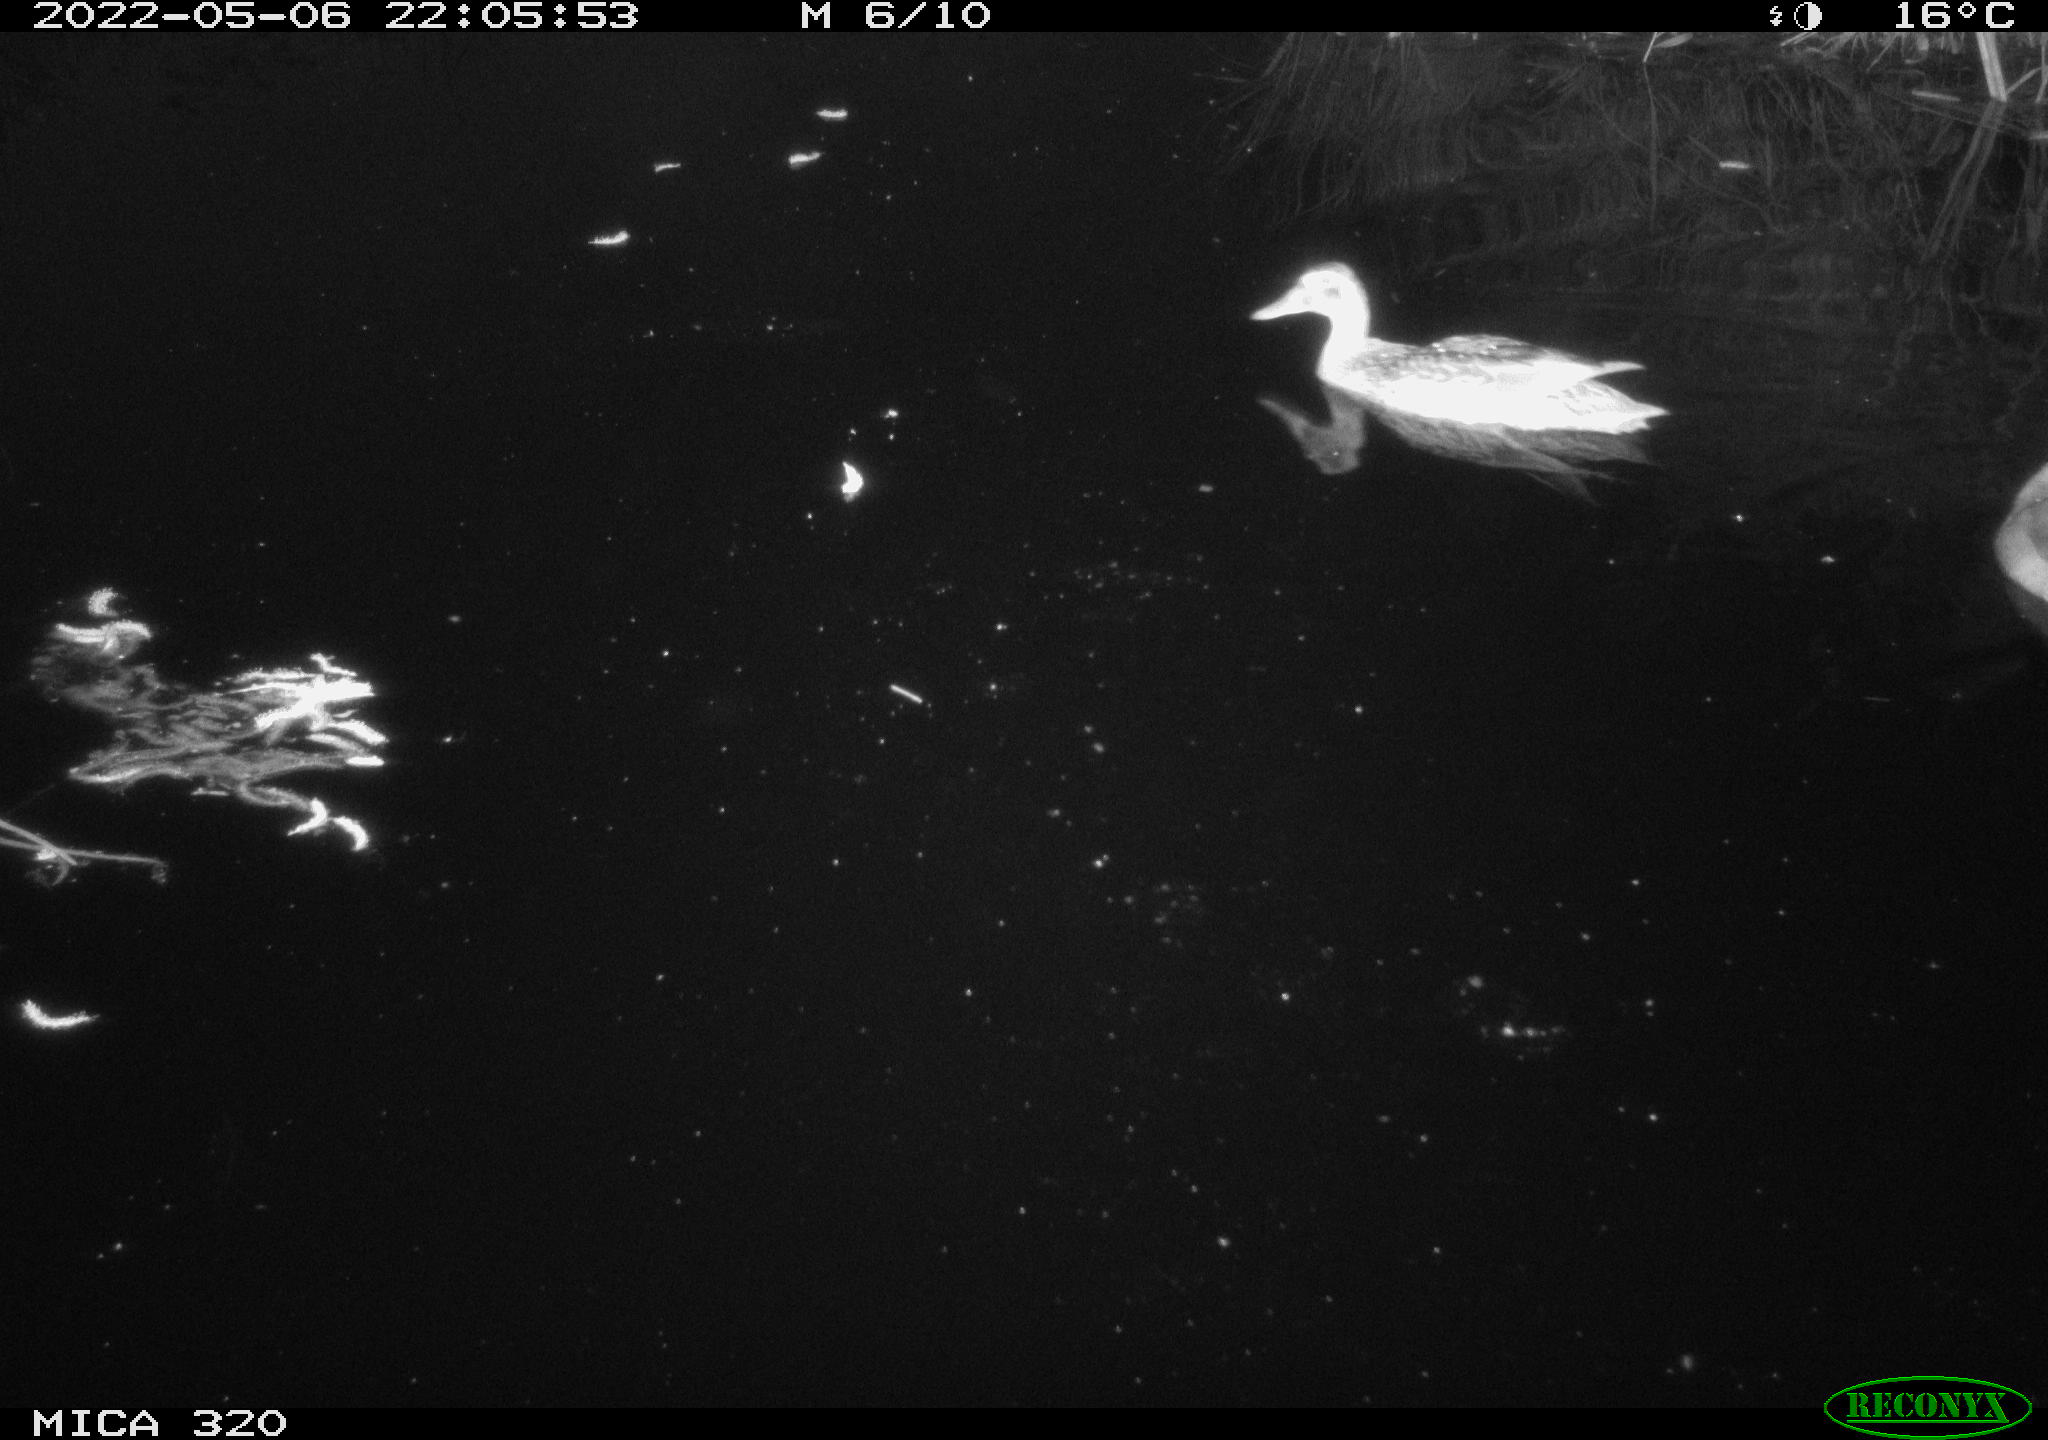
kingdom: Animalia
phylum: Chordata
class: Aves
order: Anseriformes
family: Anatidae
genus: Anas
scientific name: Anas platyrhynchos
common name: Mallard
